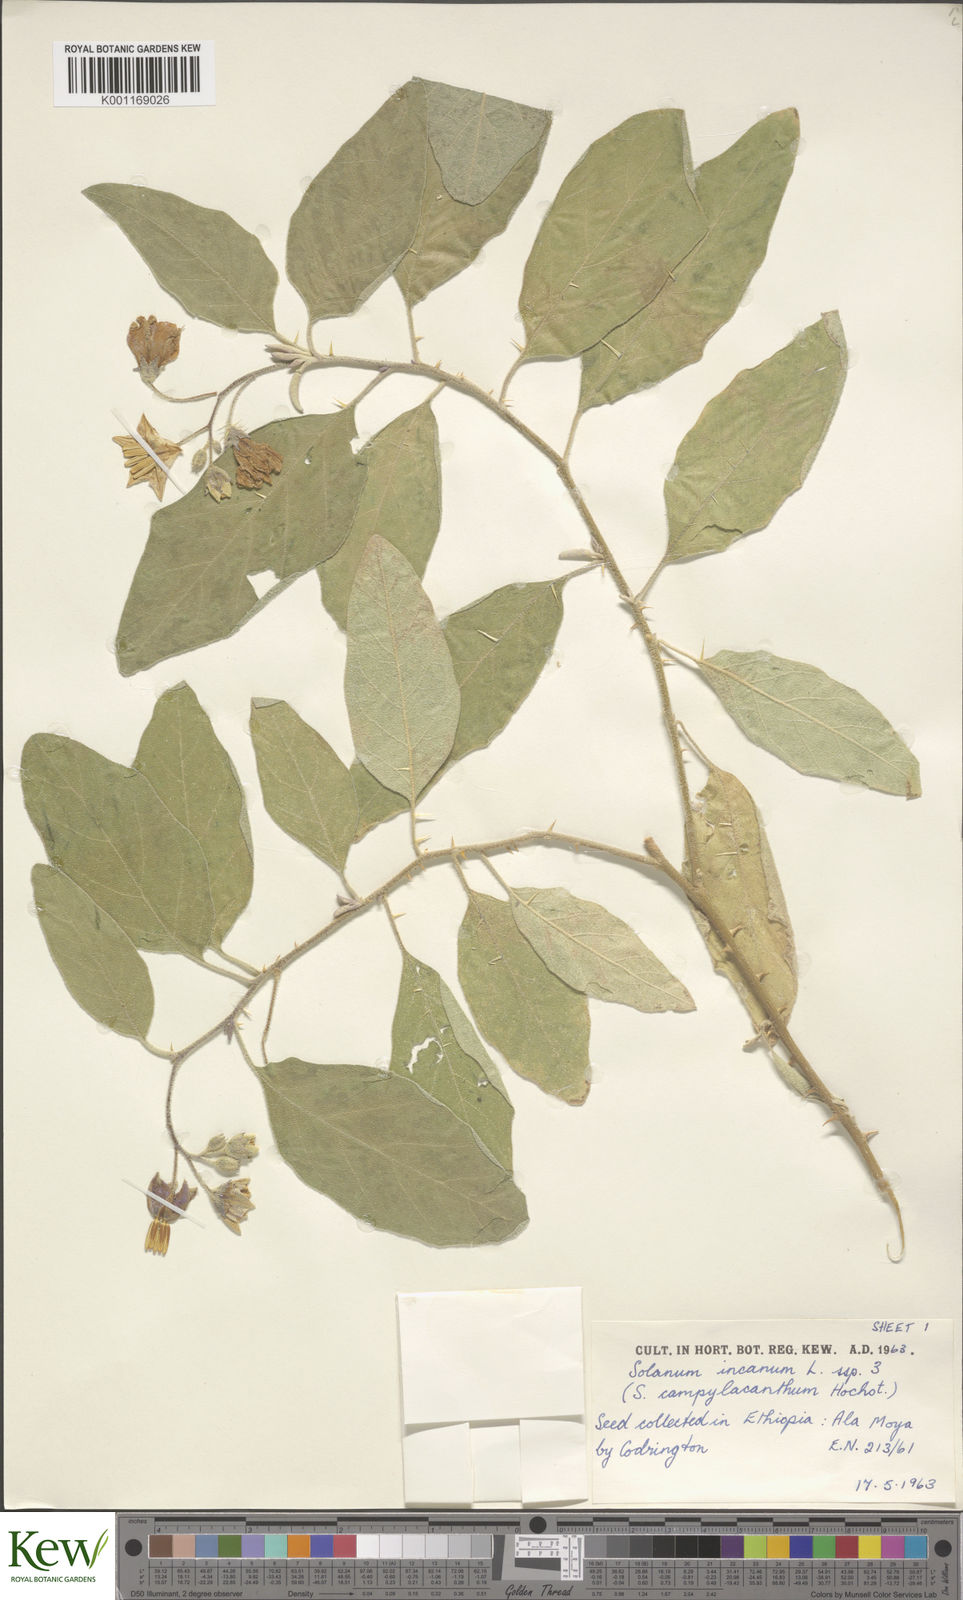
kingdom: Plantae
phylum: Tracheophyta
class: Magnoliopsida
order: Solanales
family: Solanaceae
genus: Solanum
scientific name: Solanum incanum
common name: Bitter apple
